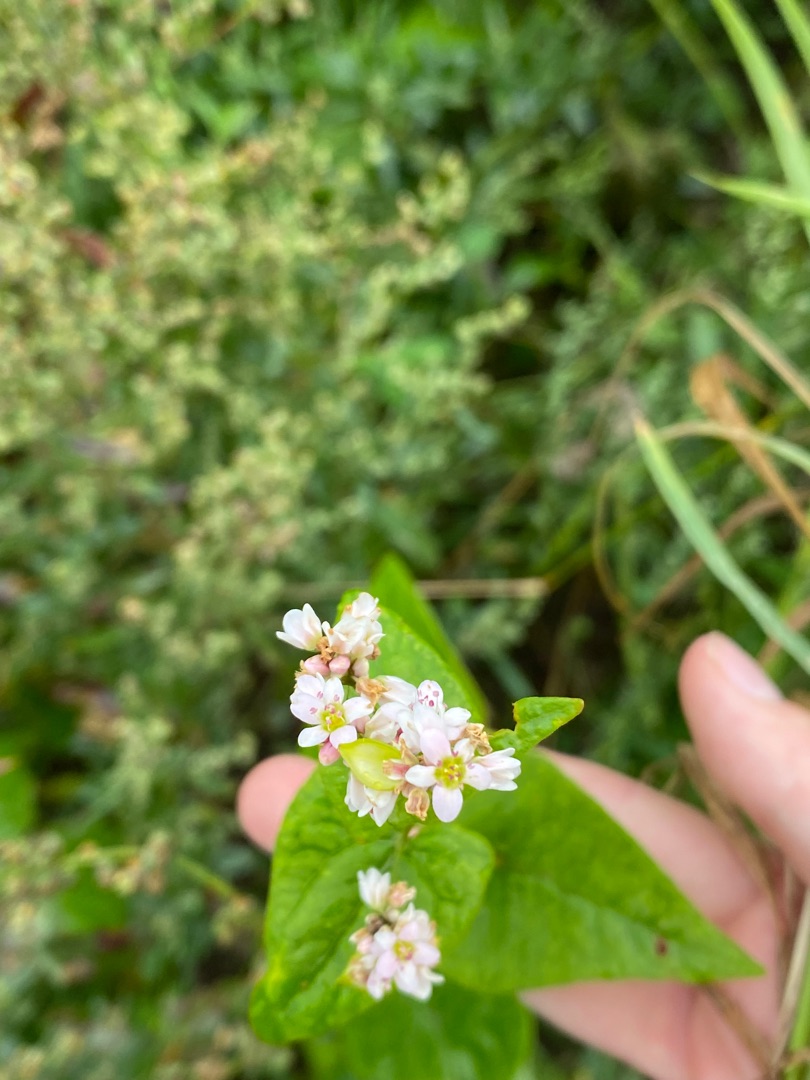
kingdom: Plantae
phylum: Tracheophyta
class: Magnoliopsida
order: Caryophyllales
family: Polygonaceae
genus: Fagopyrum
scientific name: Fagopyrum esculentum
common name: Almindelig boghvede
